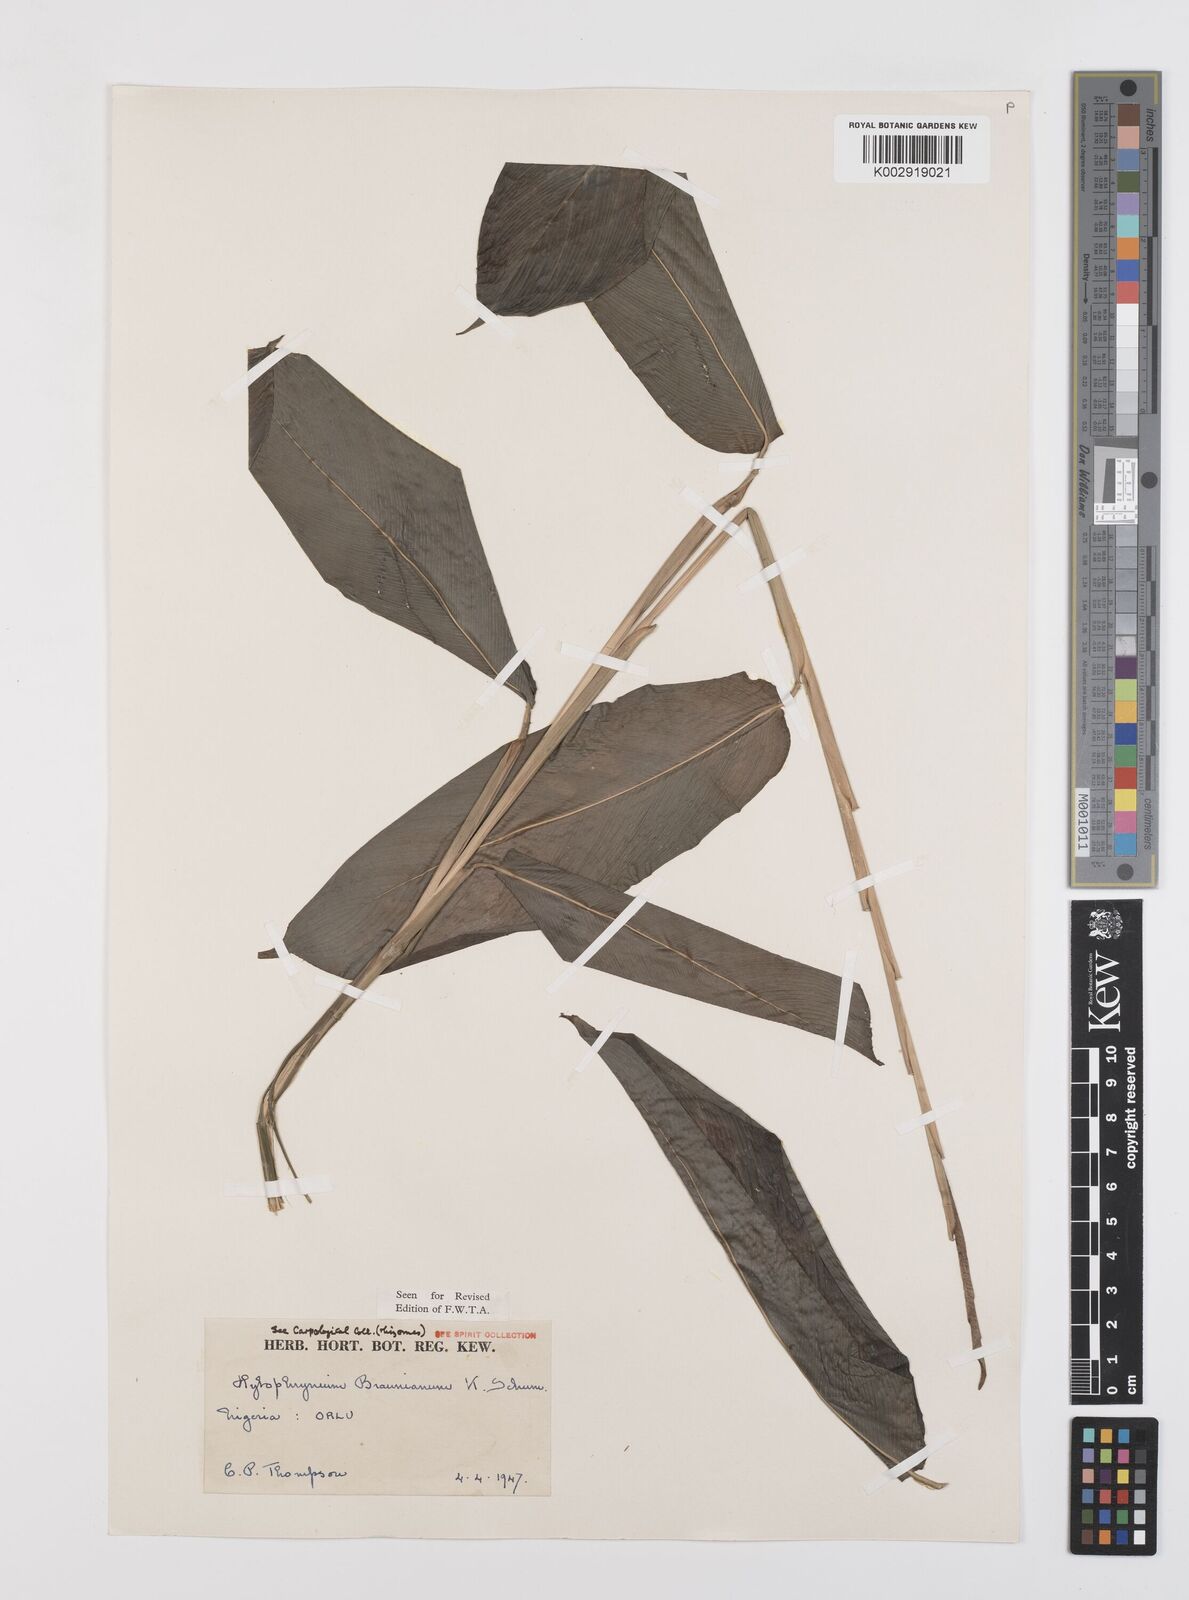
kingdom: Plantae
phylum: Tracheophyta
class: Liliopsida
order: Zingiberales
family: Marantaceae
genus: Trachyphrynium
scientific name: Trachyphrynium braunianum
